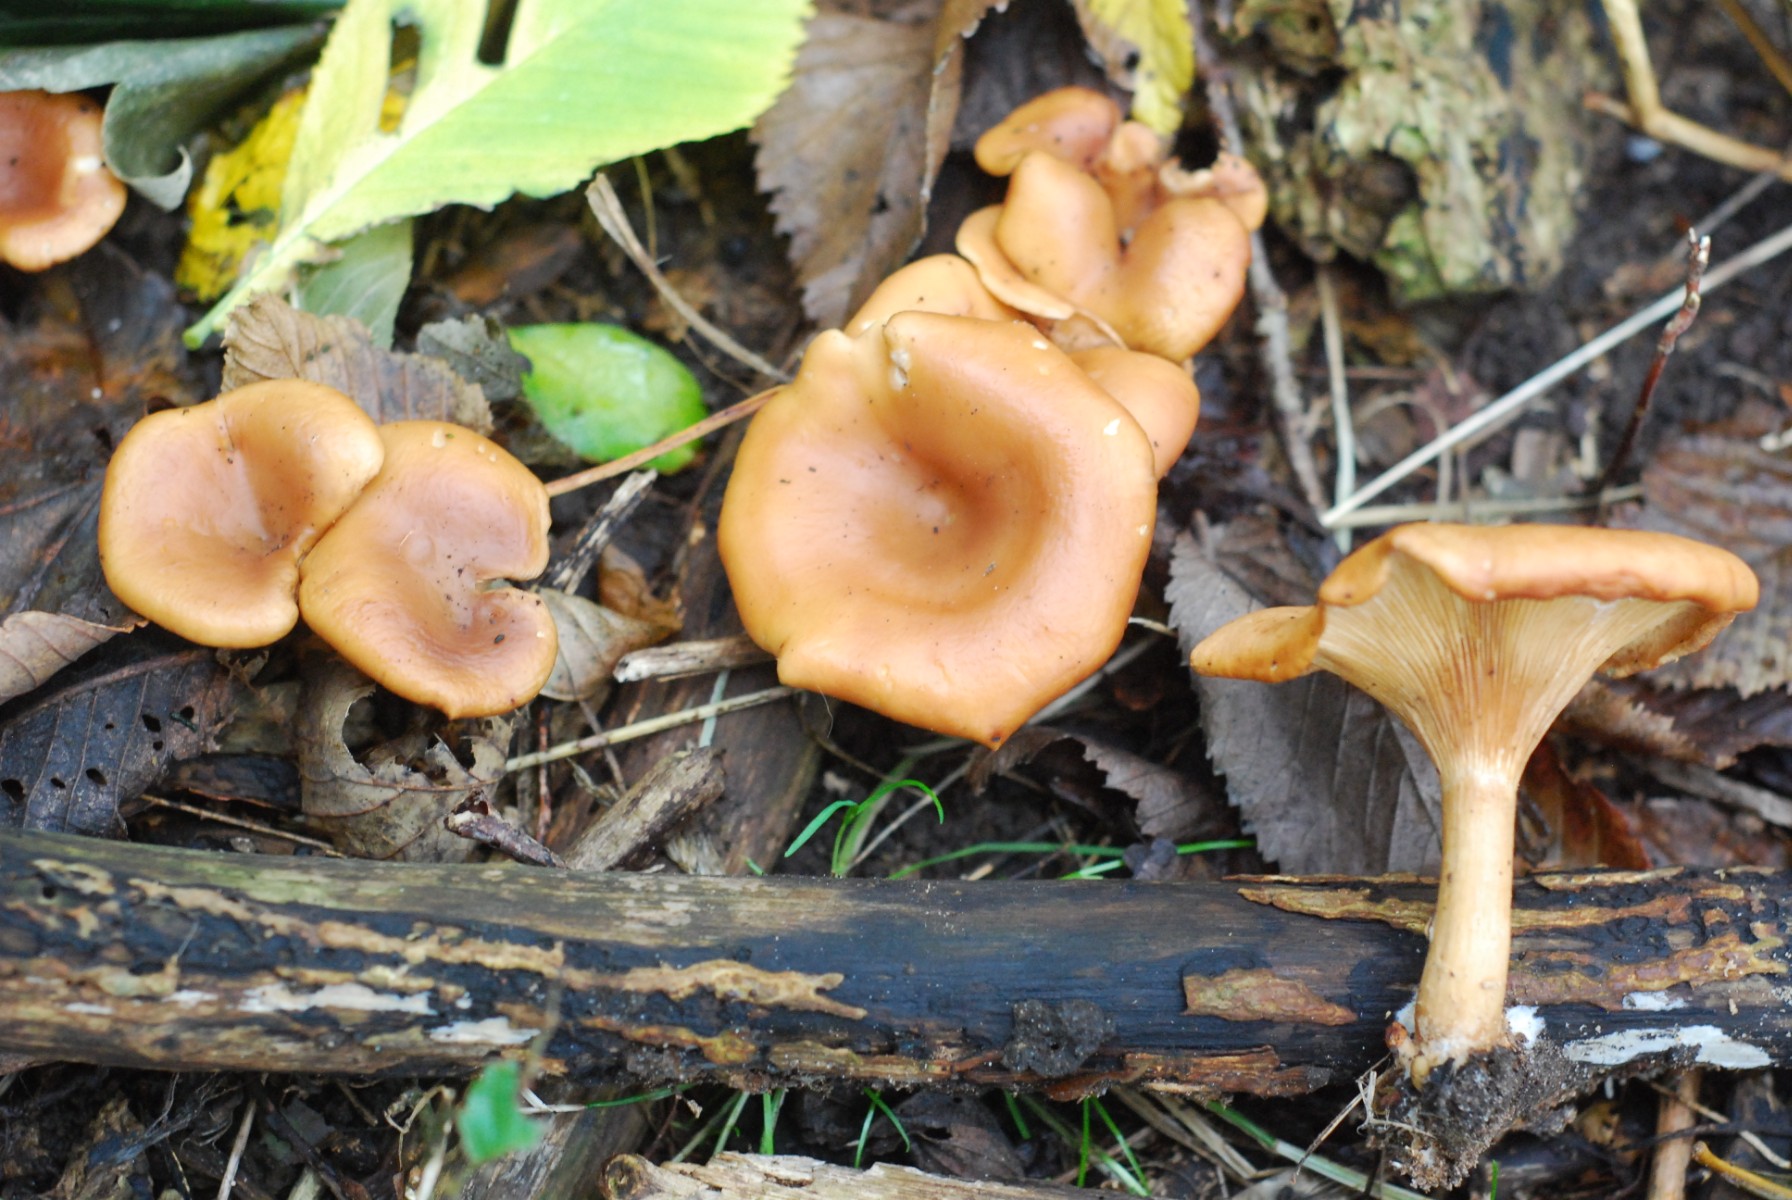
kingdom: Fungi
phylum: Basidiomycota
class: Agaricomycetes
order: Agaricales
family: Tricholomataceae
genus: Paralepista
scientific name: Paralepista flaccida
